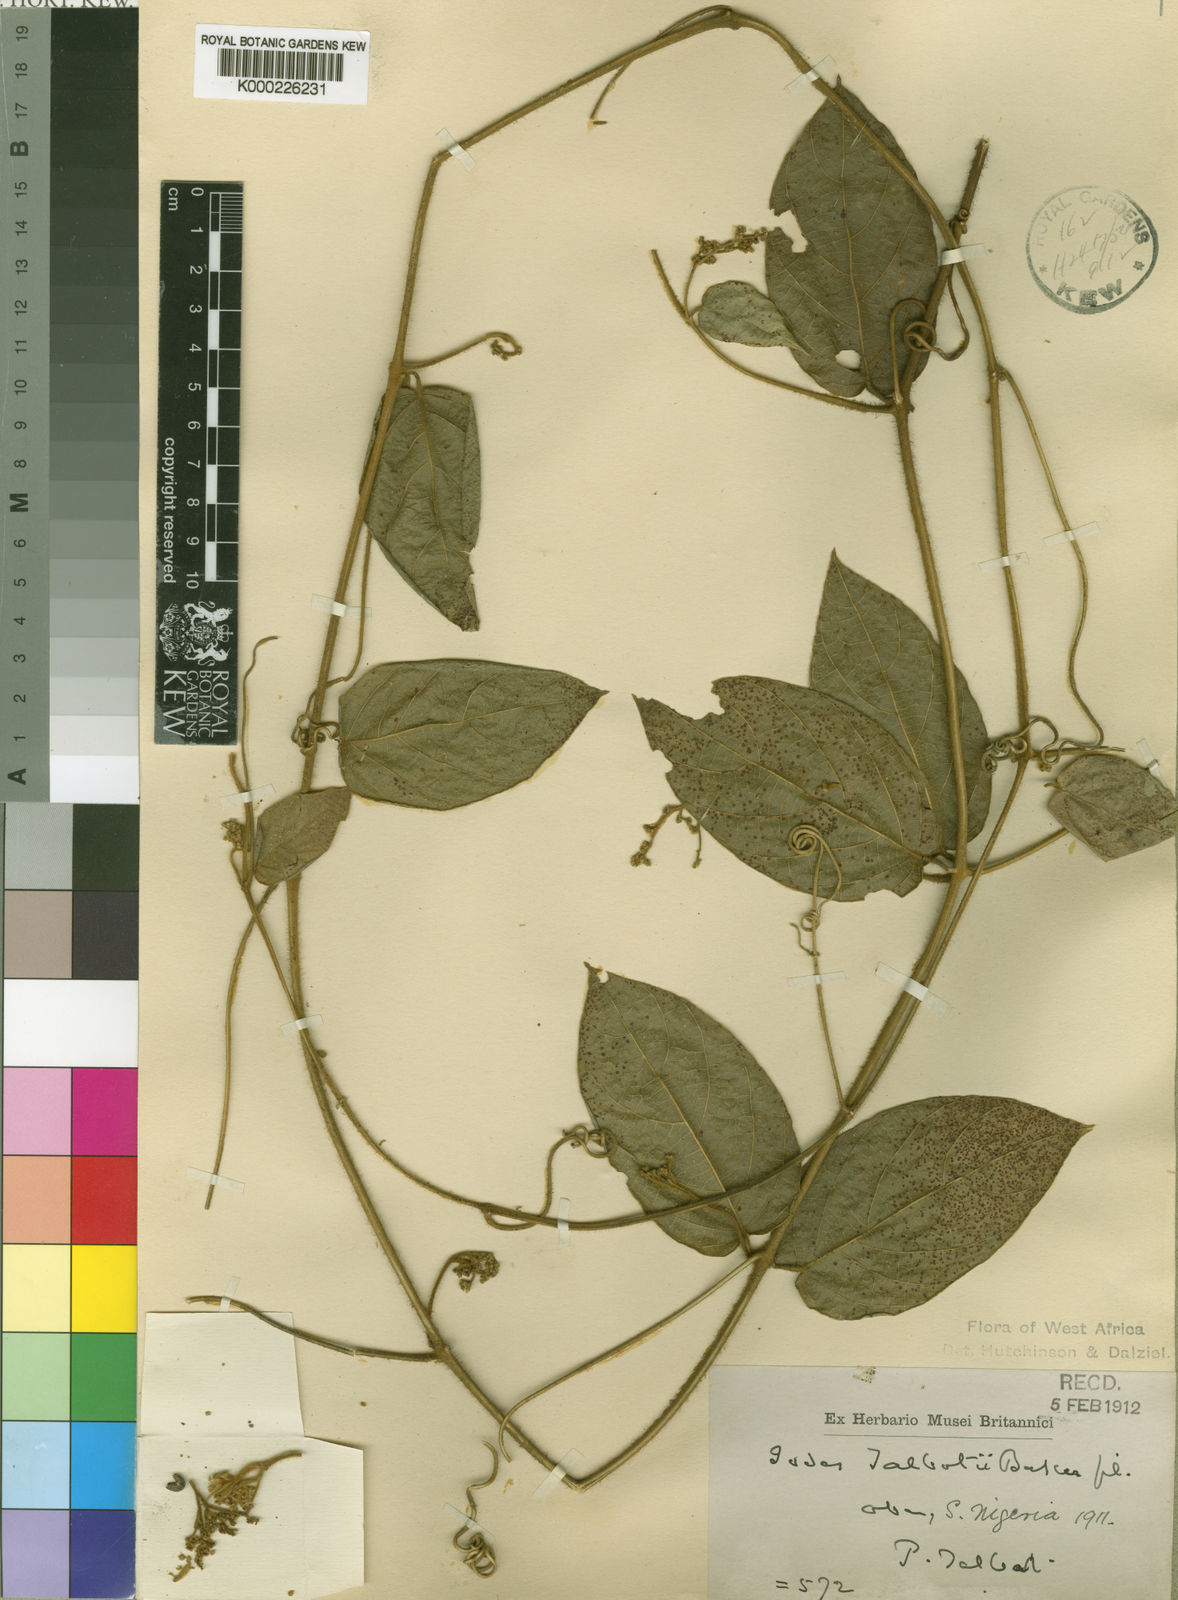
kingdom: Plantae
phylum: Tracheophyta
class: Magnoliopsida
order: Icacinales
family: Icacinaceae
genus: Iodes
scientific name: Iodes klaineana
